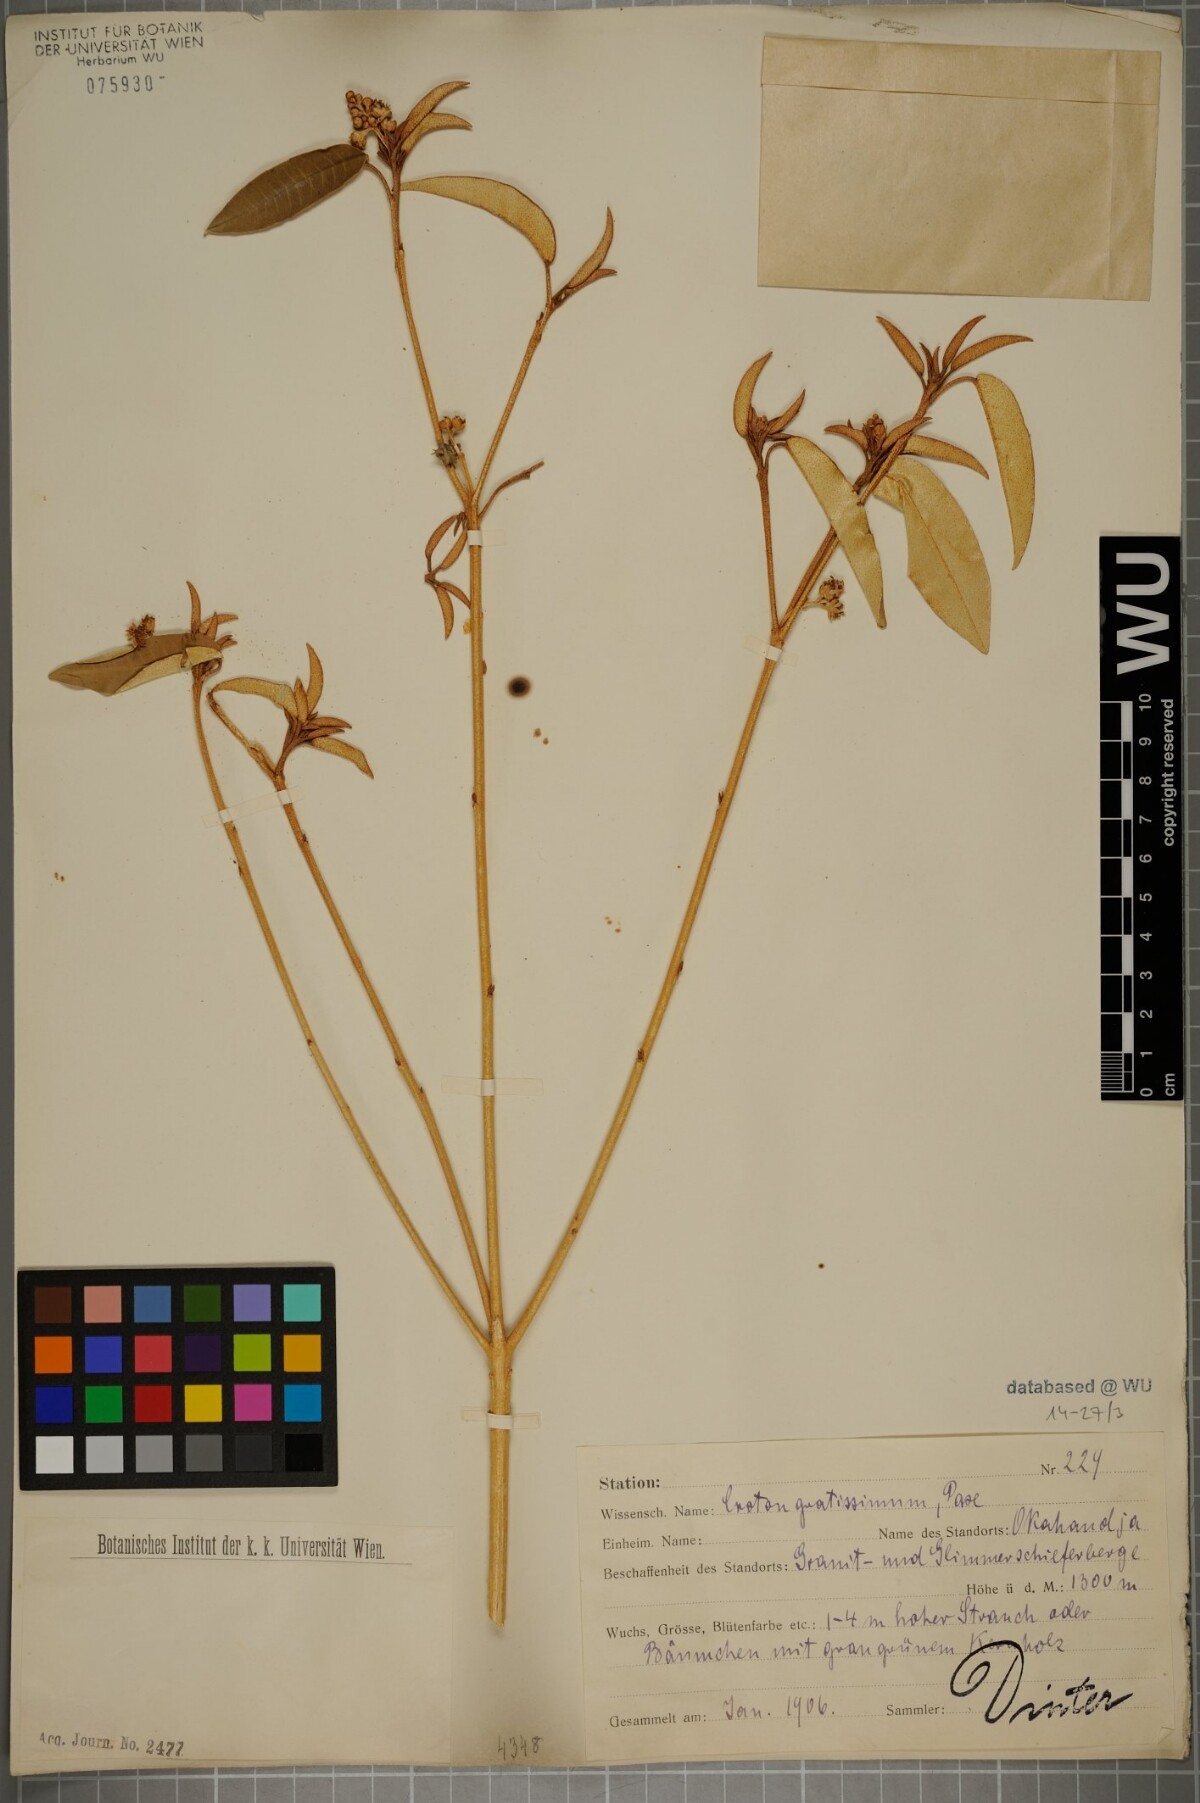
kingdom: Plantae
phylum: Tracheophyta
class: Magnoliopsida
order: Malpighiales
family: Euphorbiaceae
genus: Croton
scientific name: Croton gratissimus
